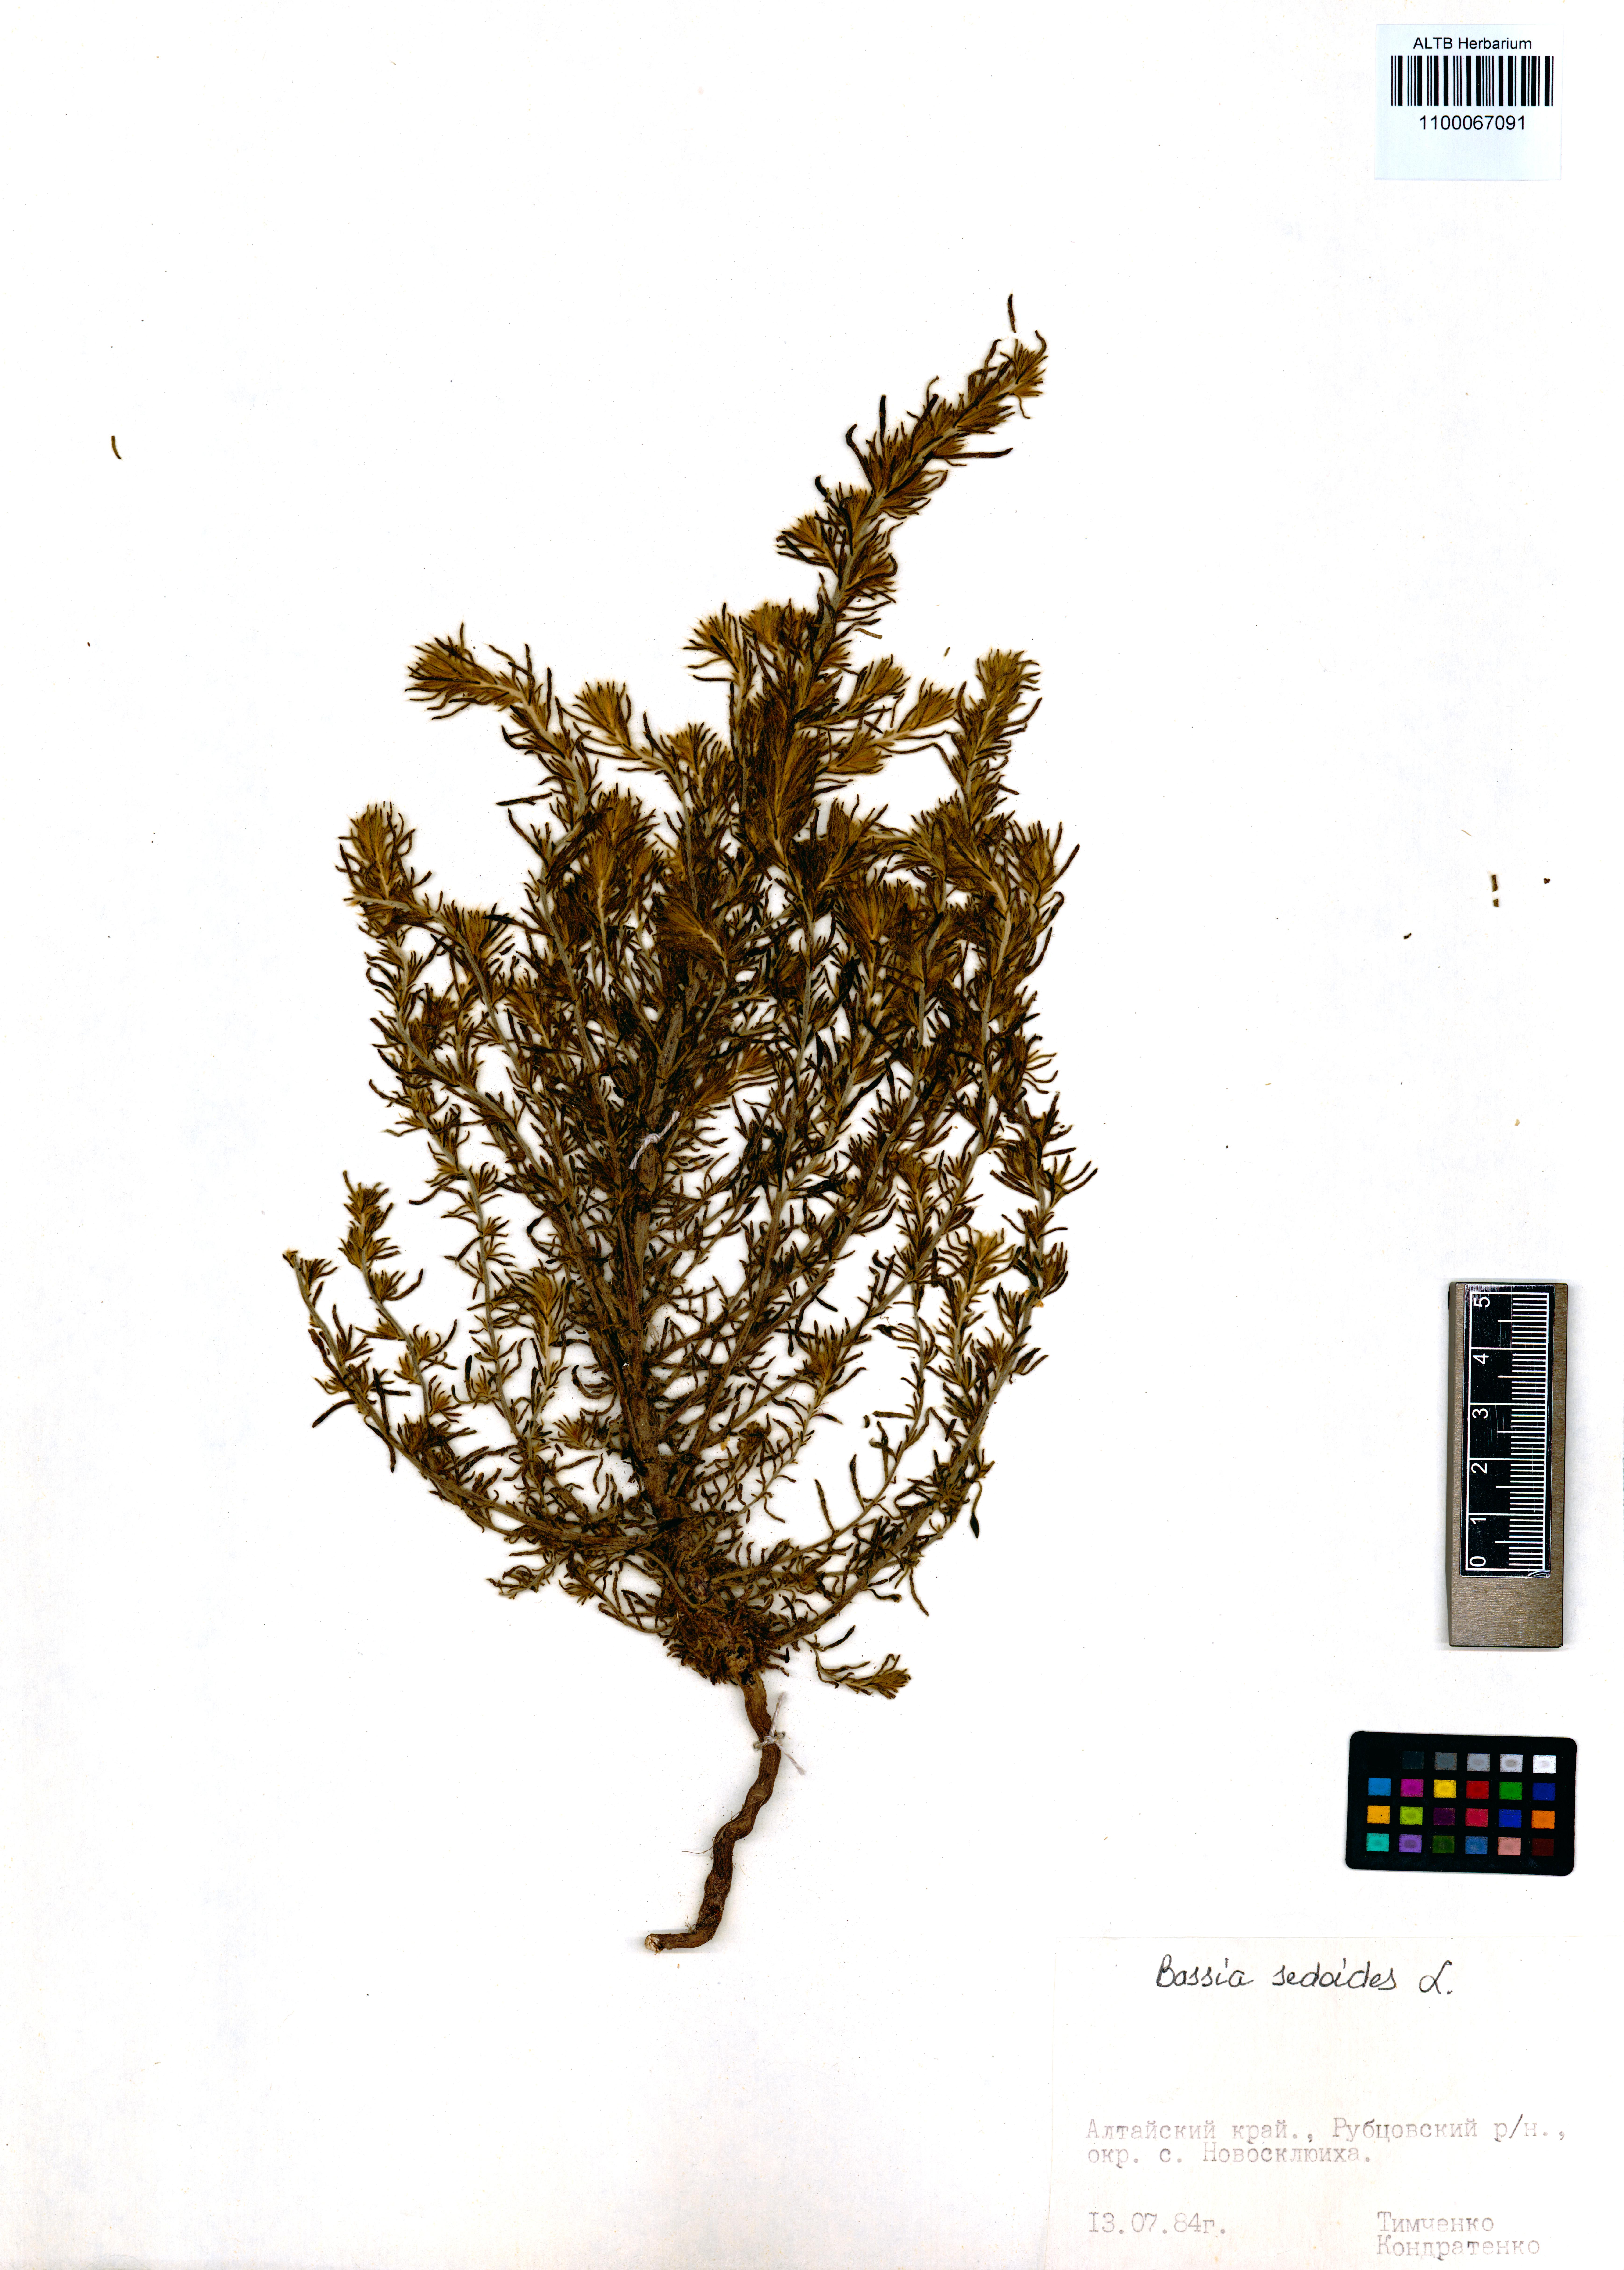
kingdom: Plantae
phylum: Tracheophyta
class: Magnoliopsida
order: Caryophyllales
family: Amaranthaceae
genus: Sedobassia
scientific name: Sedobassia sedoides
